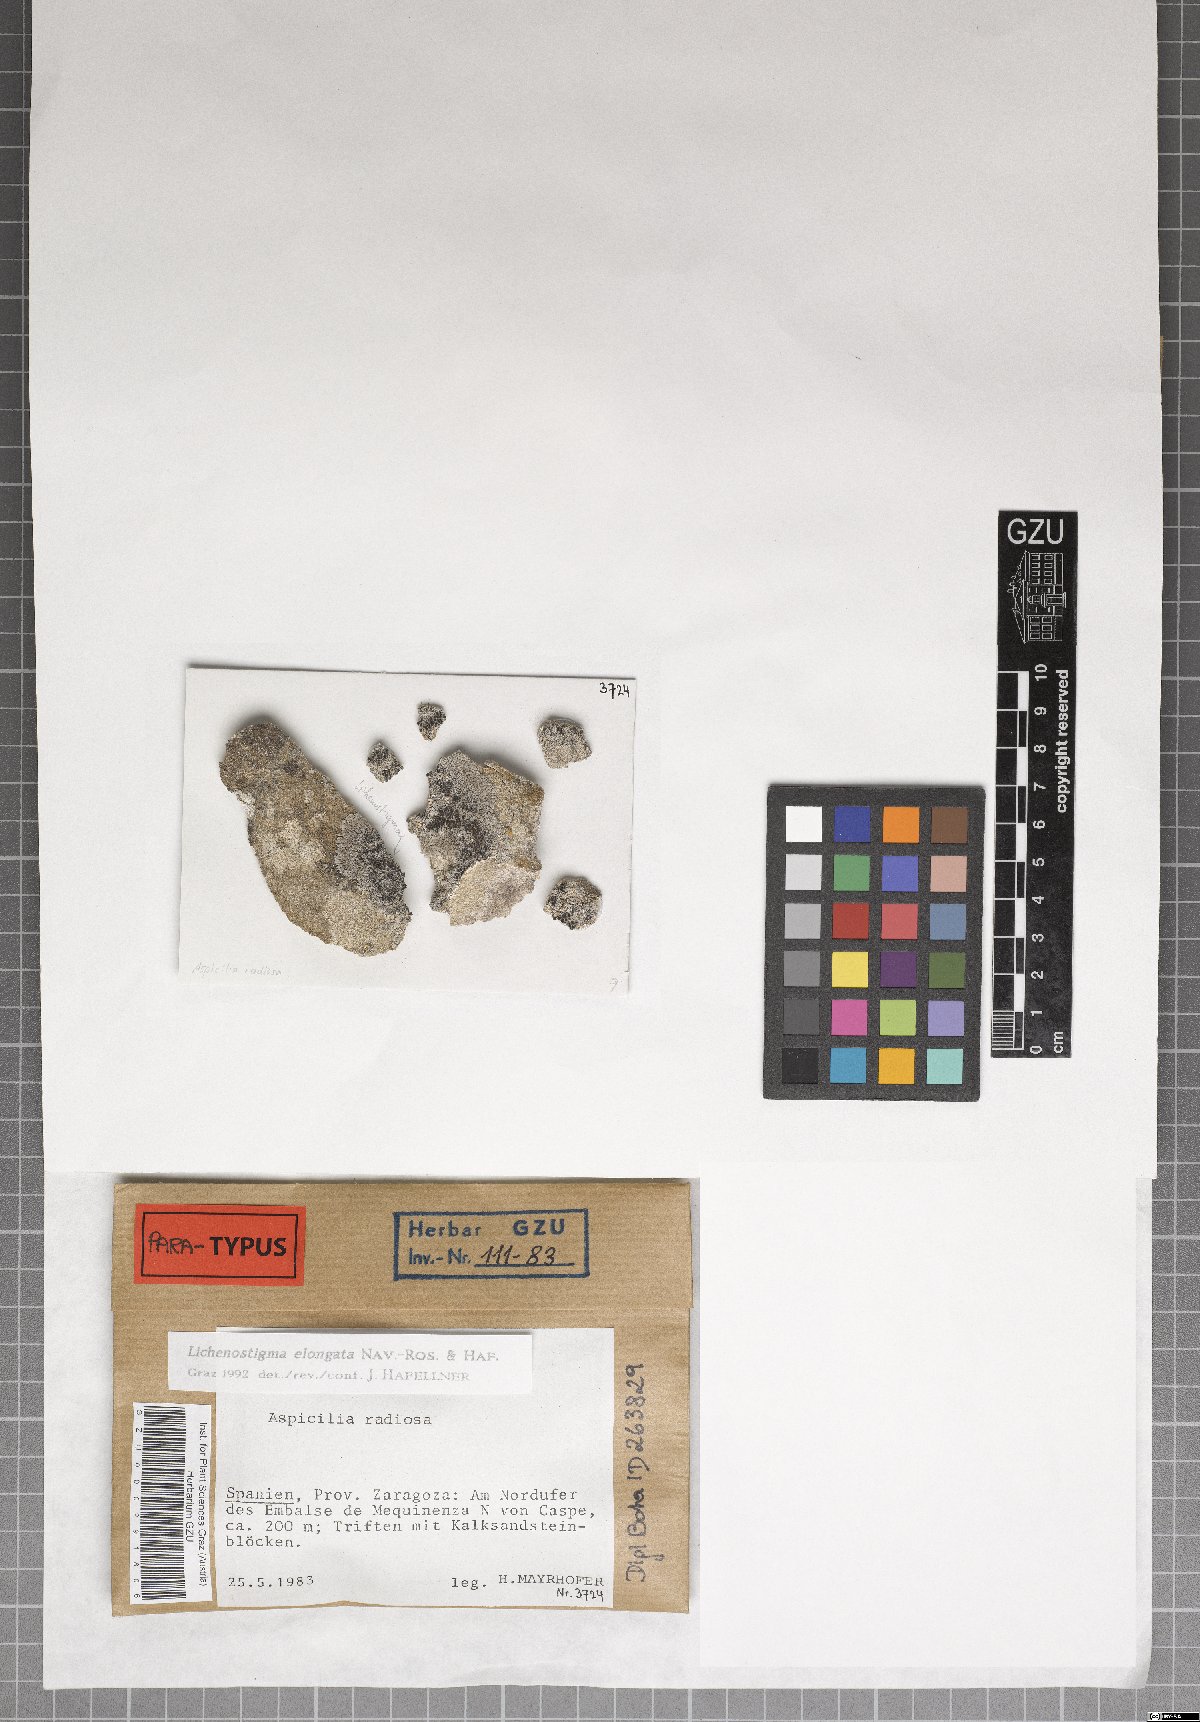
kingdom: Fungi
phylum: Ascomycota
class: Arthoniomycetes
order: Lichenostigmatales
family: Phaeococcomycetaceae
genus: Lichenostigma
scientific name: Lichenostigma elongatum
